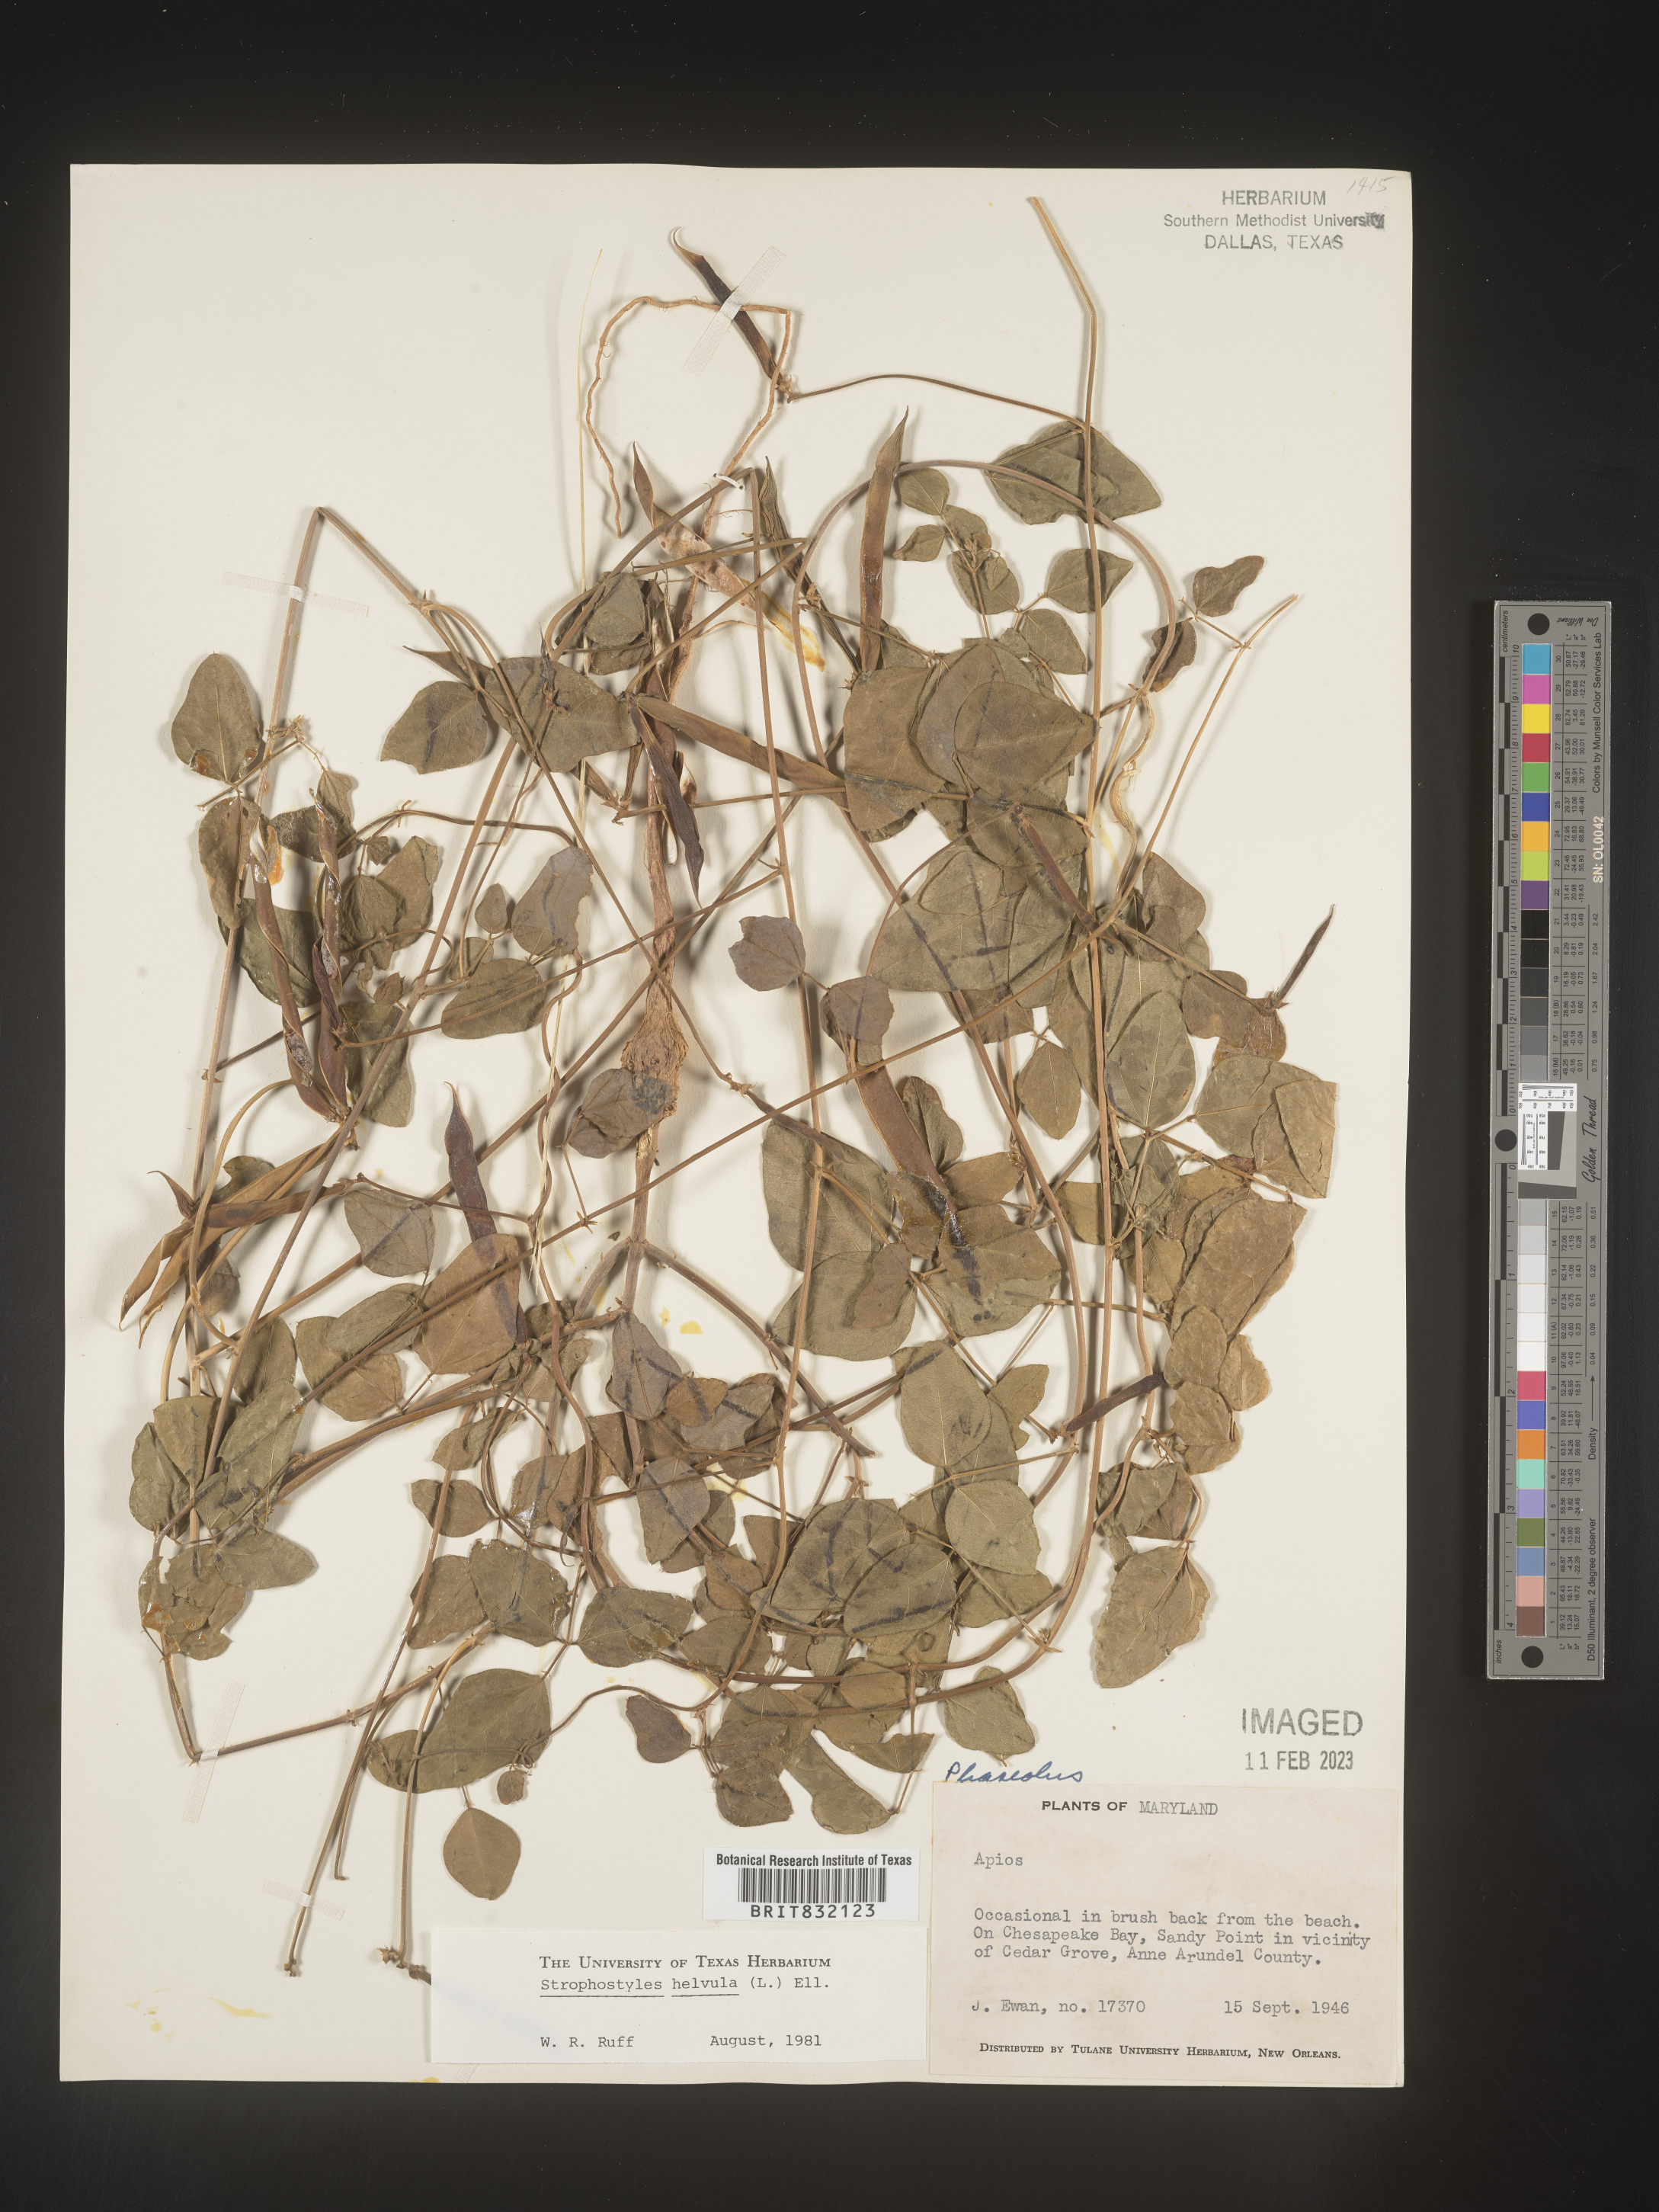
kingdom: Plantae
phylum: Tracheophyta
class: Magnoliopsida
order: Fabales
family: Fabaceae
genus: Strophostyles
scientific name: Strophostyles helvola
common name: Trailing wild bean
